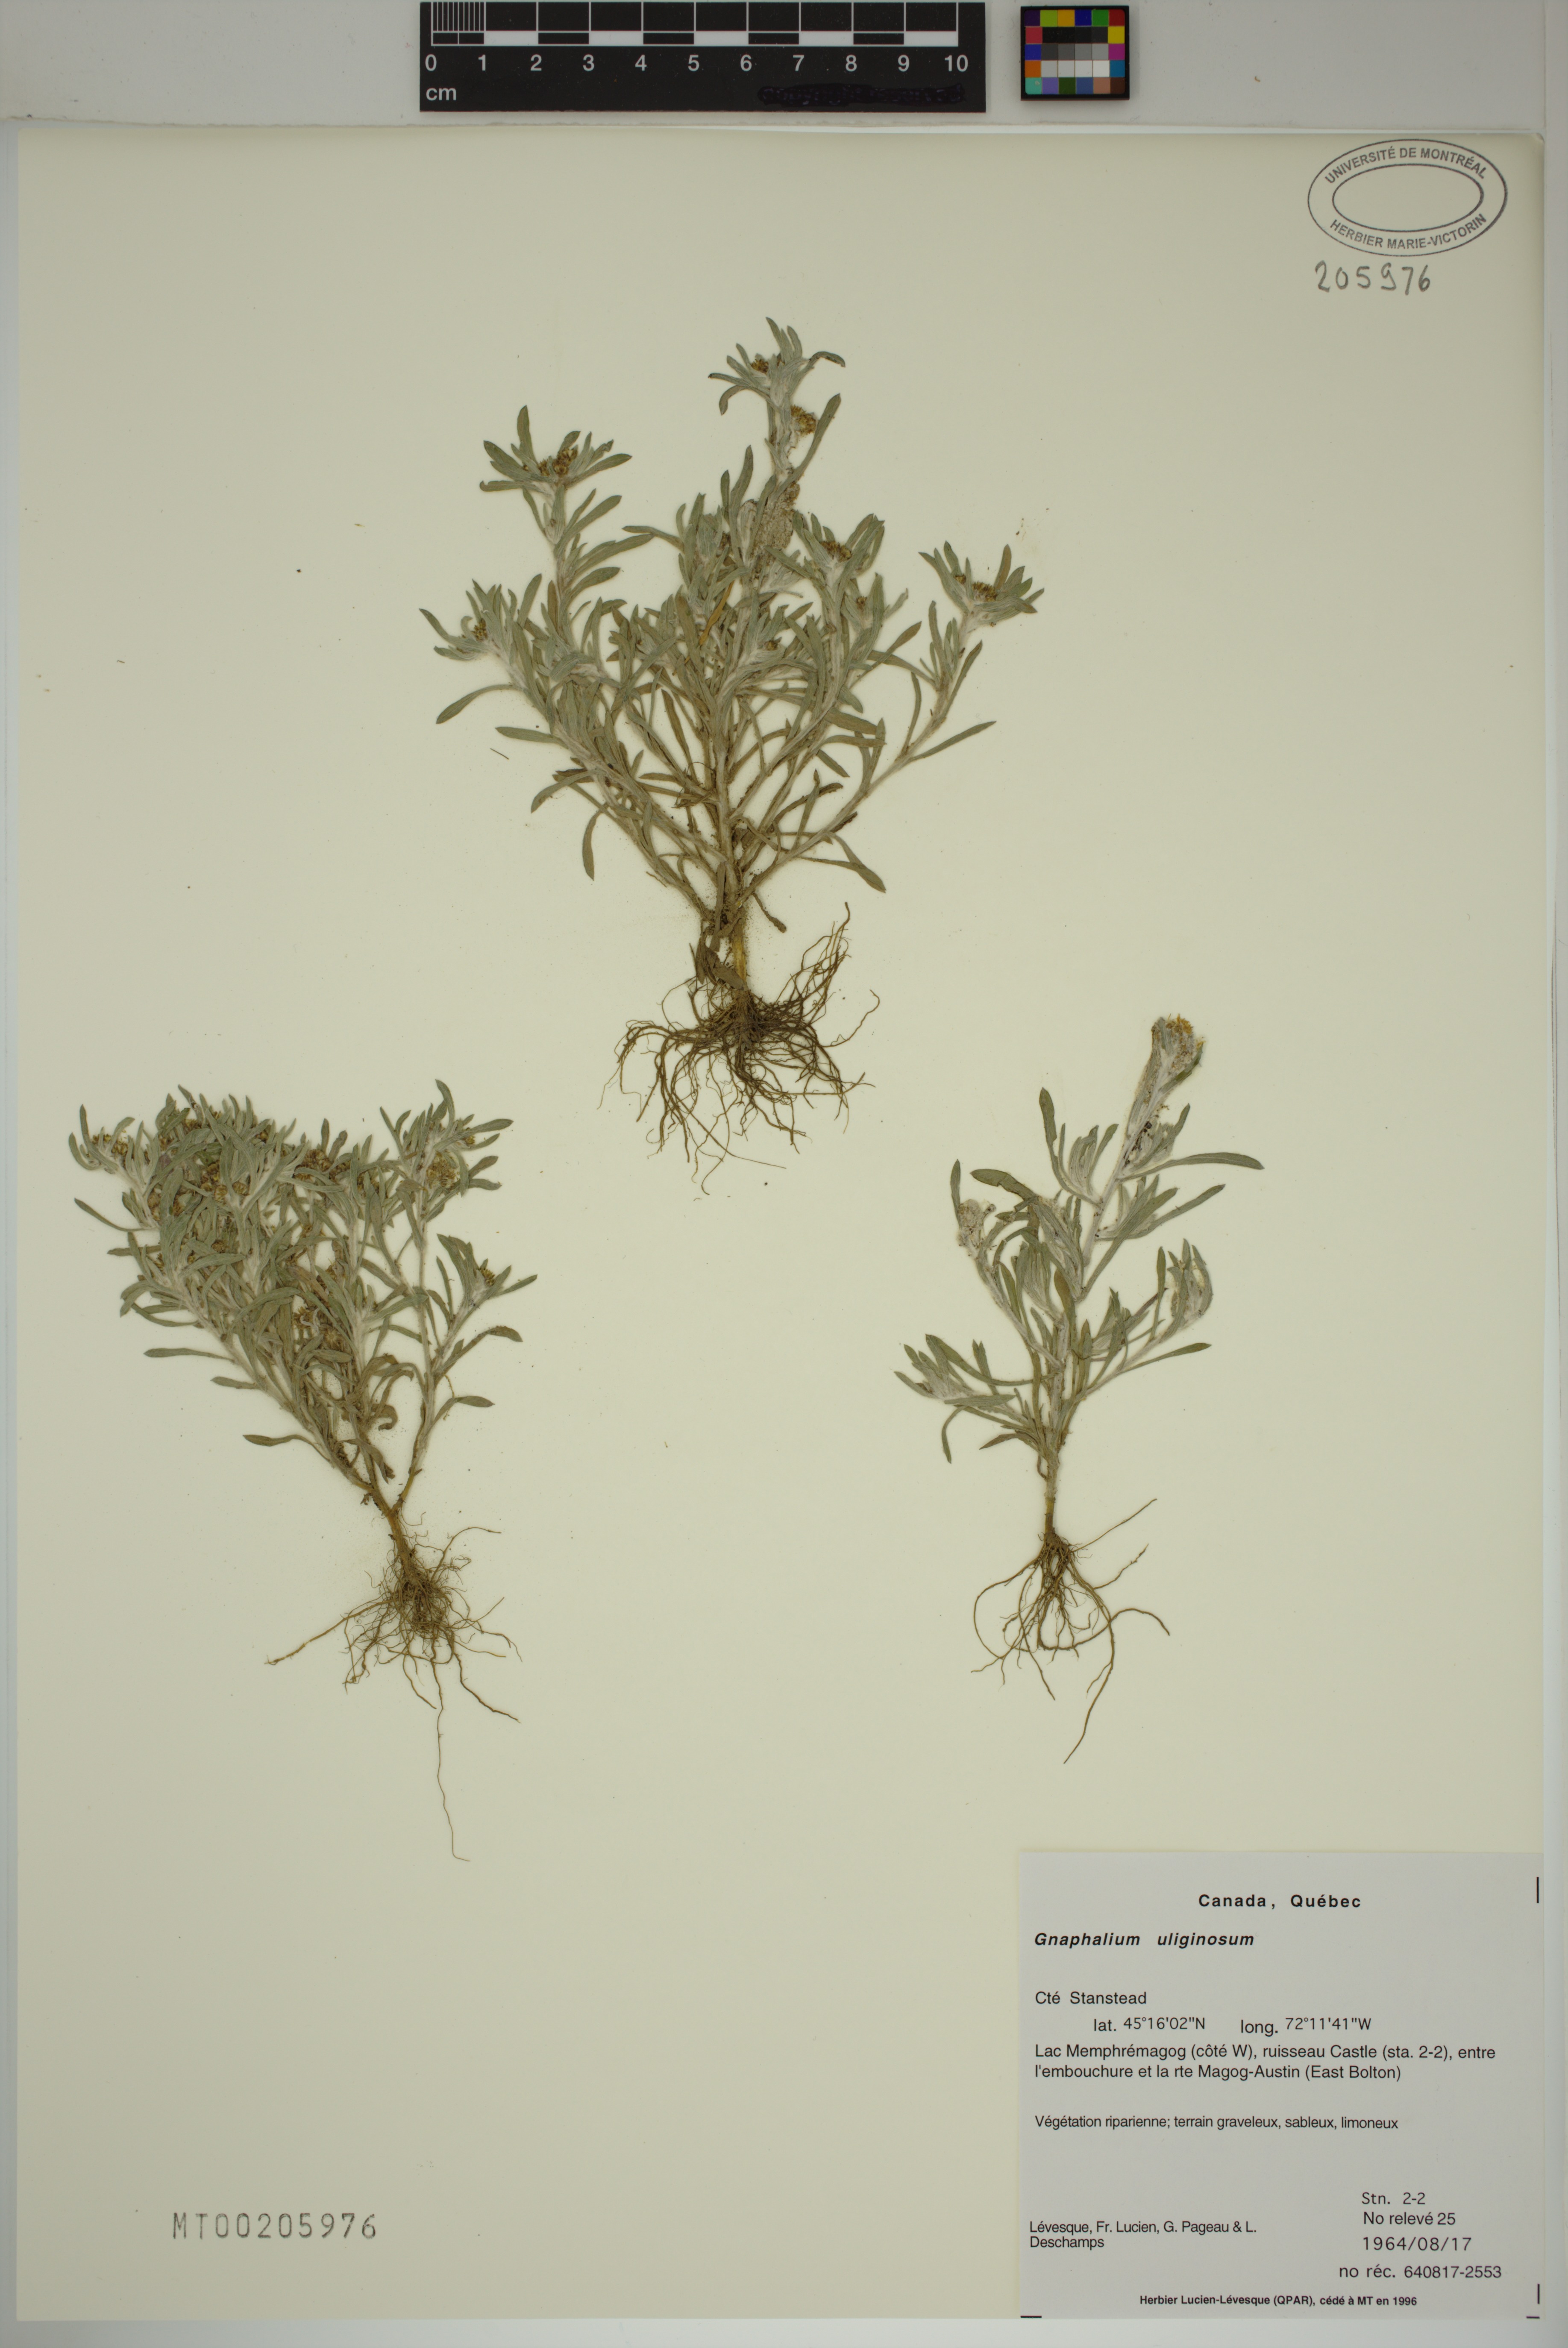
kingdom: Plantae
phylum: Tracheophyta
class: Magnoliopsida
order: Asterales
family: Asteraceae
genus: Gnaphalium
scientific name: Gnaphalium uliginosum
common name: Marsh cudweed
